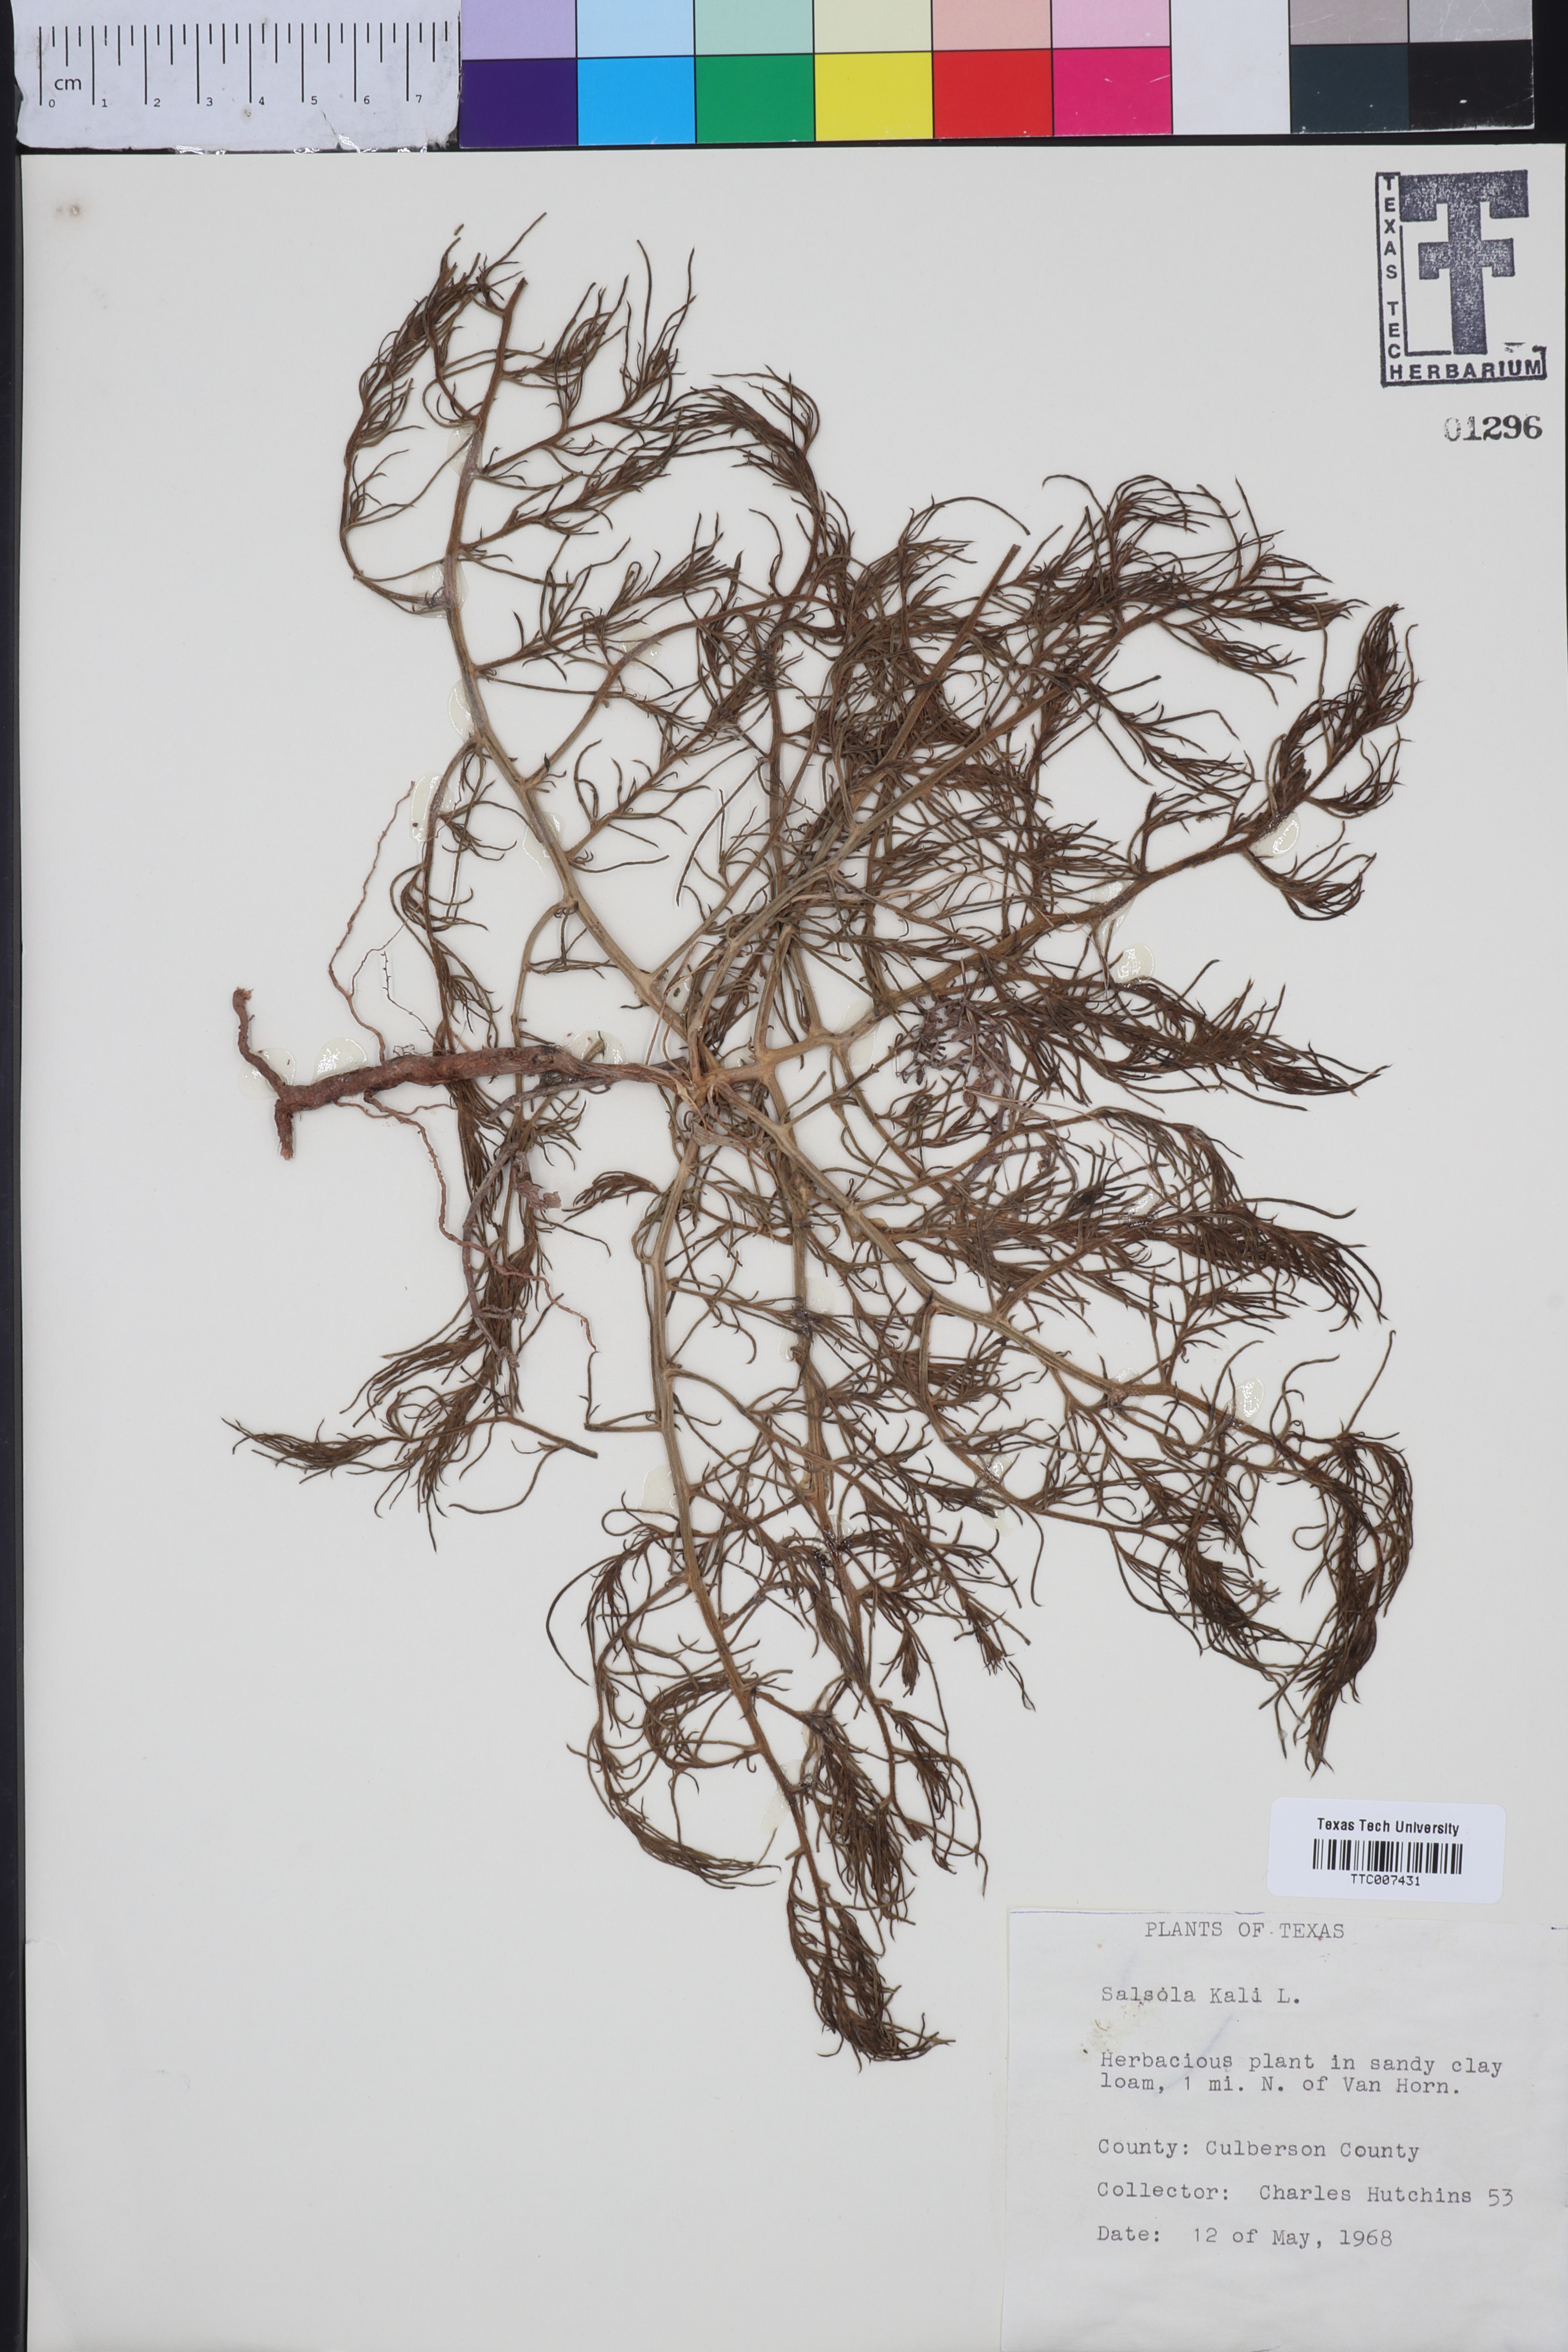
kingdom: Plantae
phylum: Tracheophyta
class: Magnoliopsida
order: Caryophyllales
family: Amaranthaceae
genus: Salsola
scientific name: Salsola kali
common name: Saltwort
